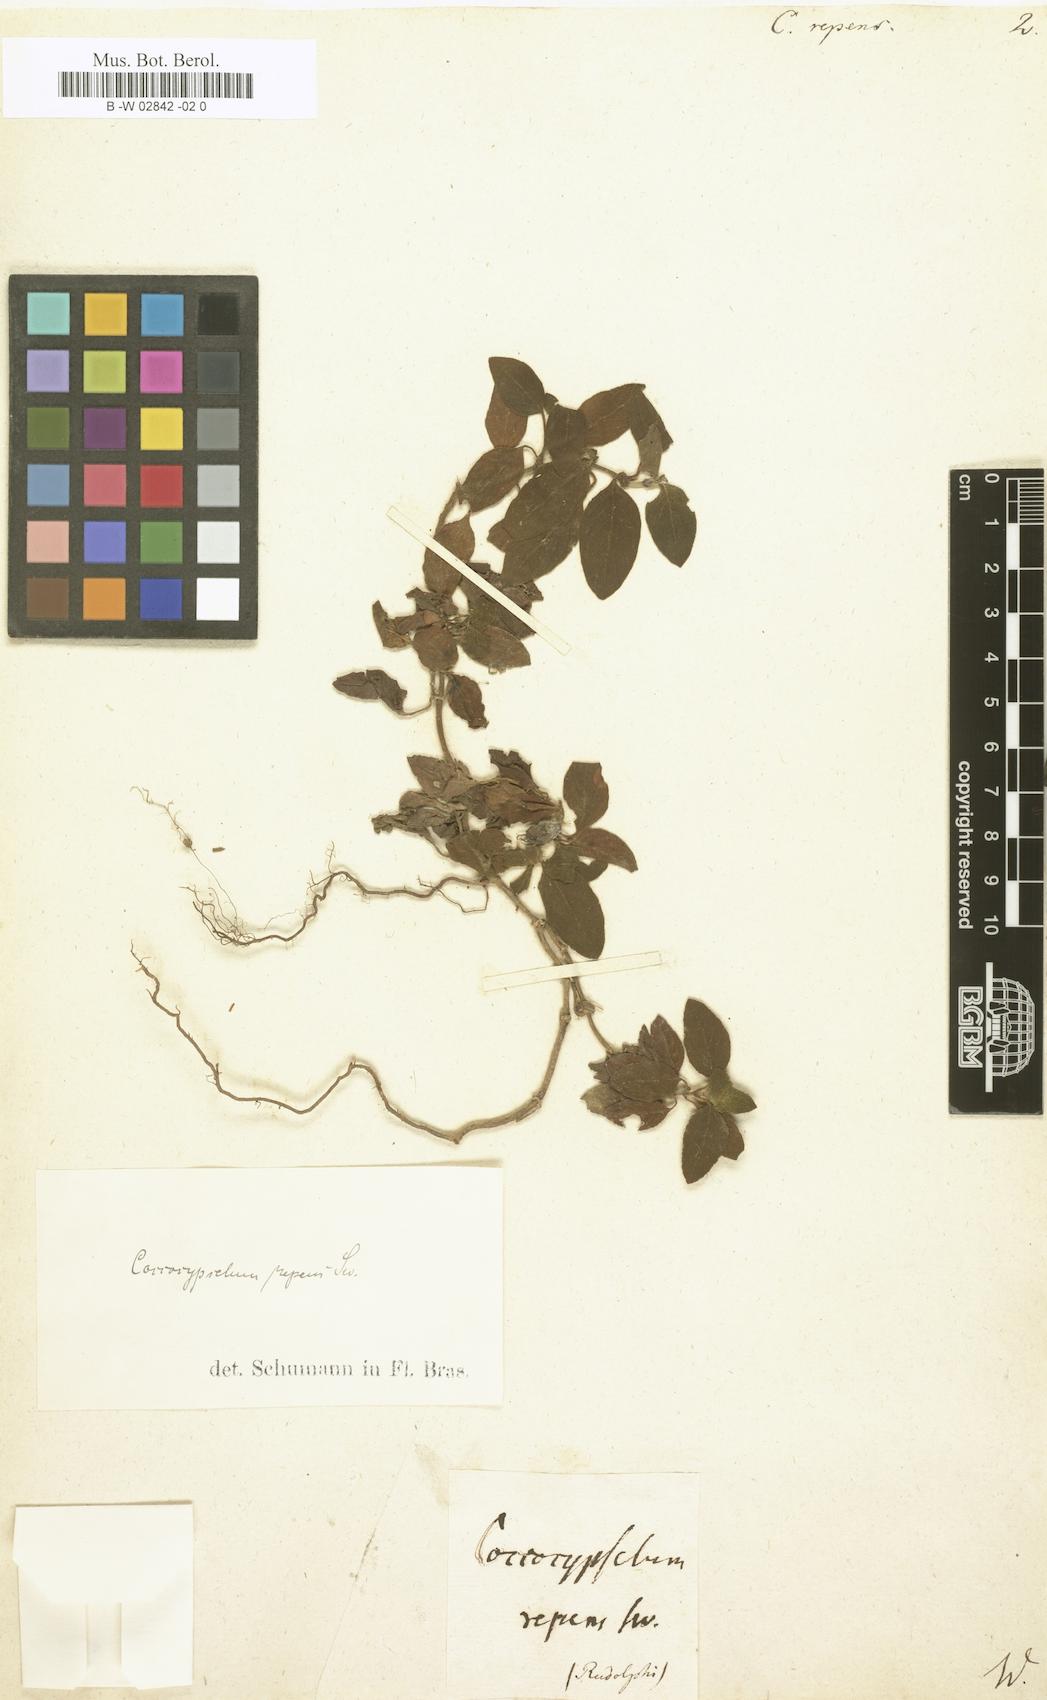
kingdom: Plantae
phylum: Tracheophyta
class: Magnoliopsida
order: Gentianales
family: Rubiaceae
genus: Coccocypselum
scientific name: Coccocypselum repens
